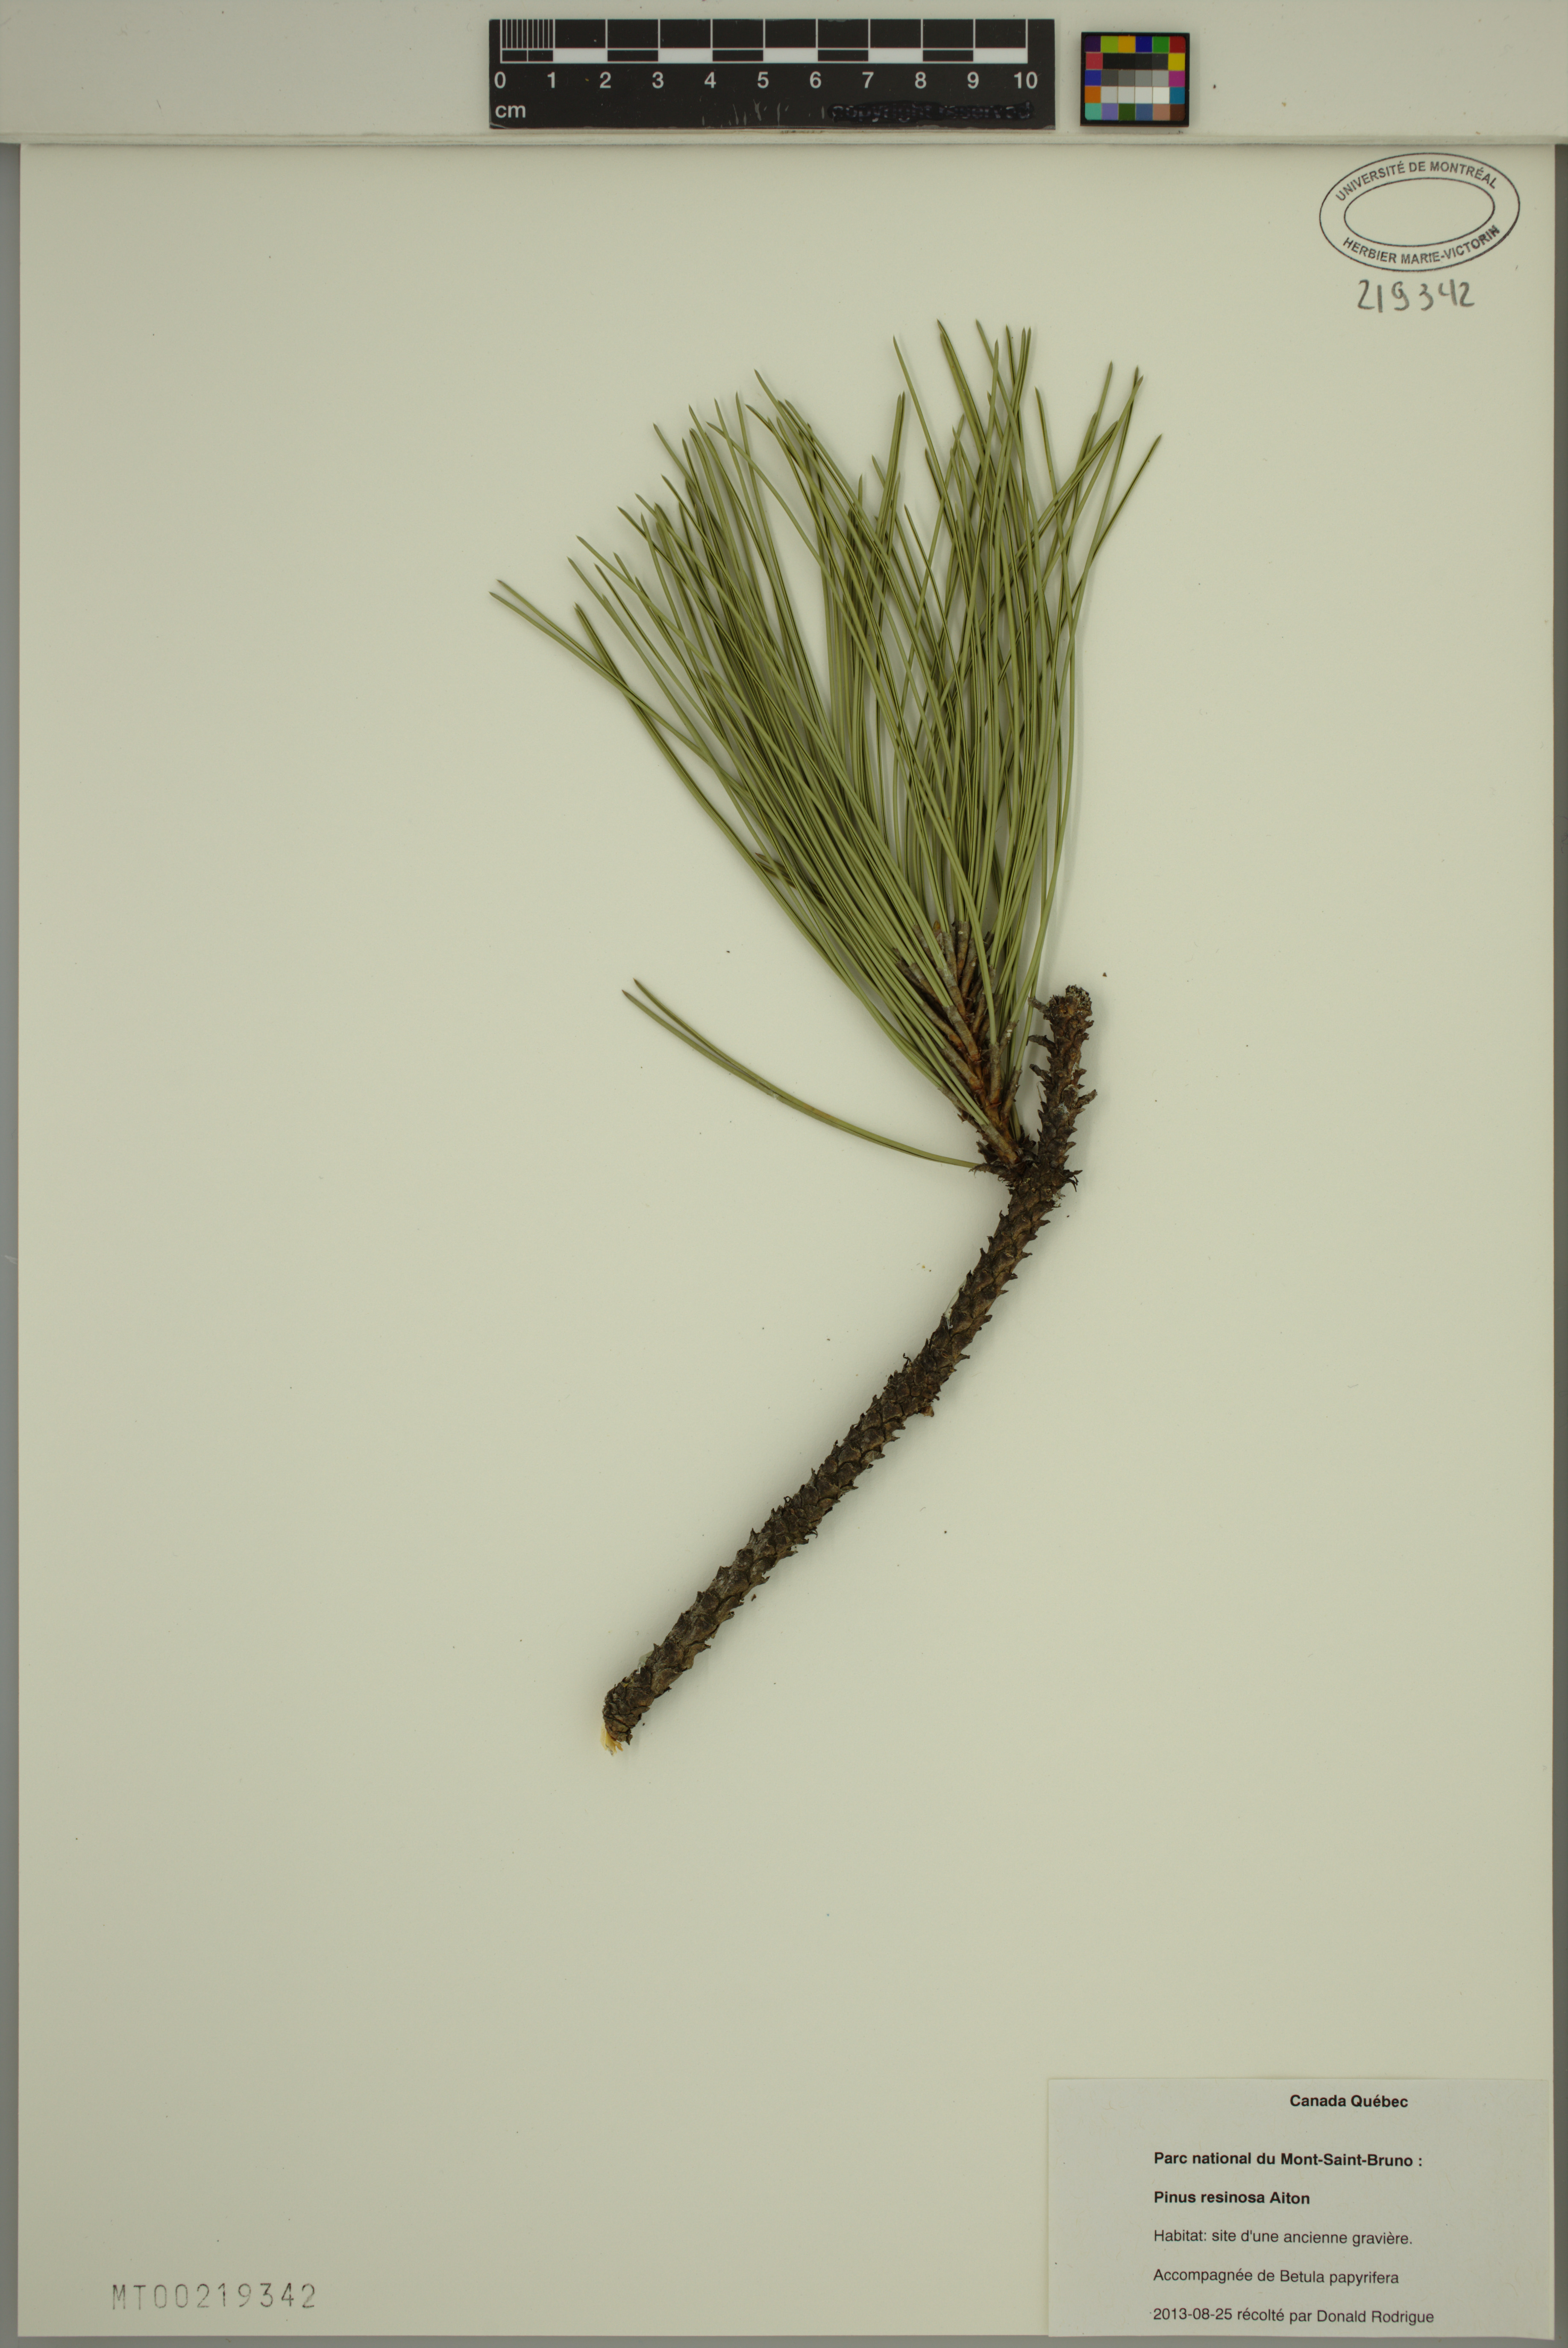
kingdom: Plantae
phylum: Tracheophyta
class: Pinopsida
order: Pinales
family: Pinaceae
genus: Pinus
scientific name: Pinus resinosa
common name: Norway pine
